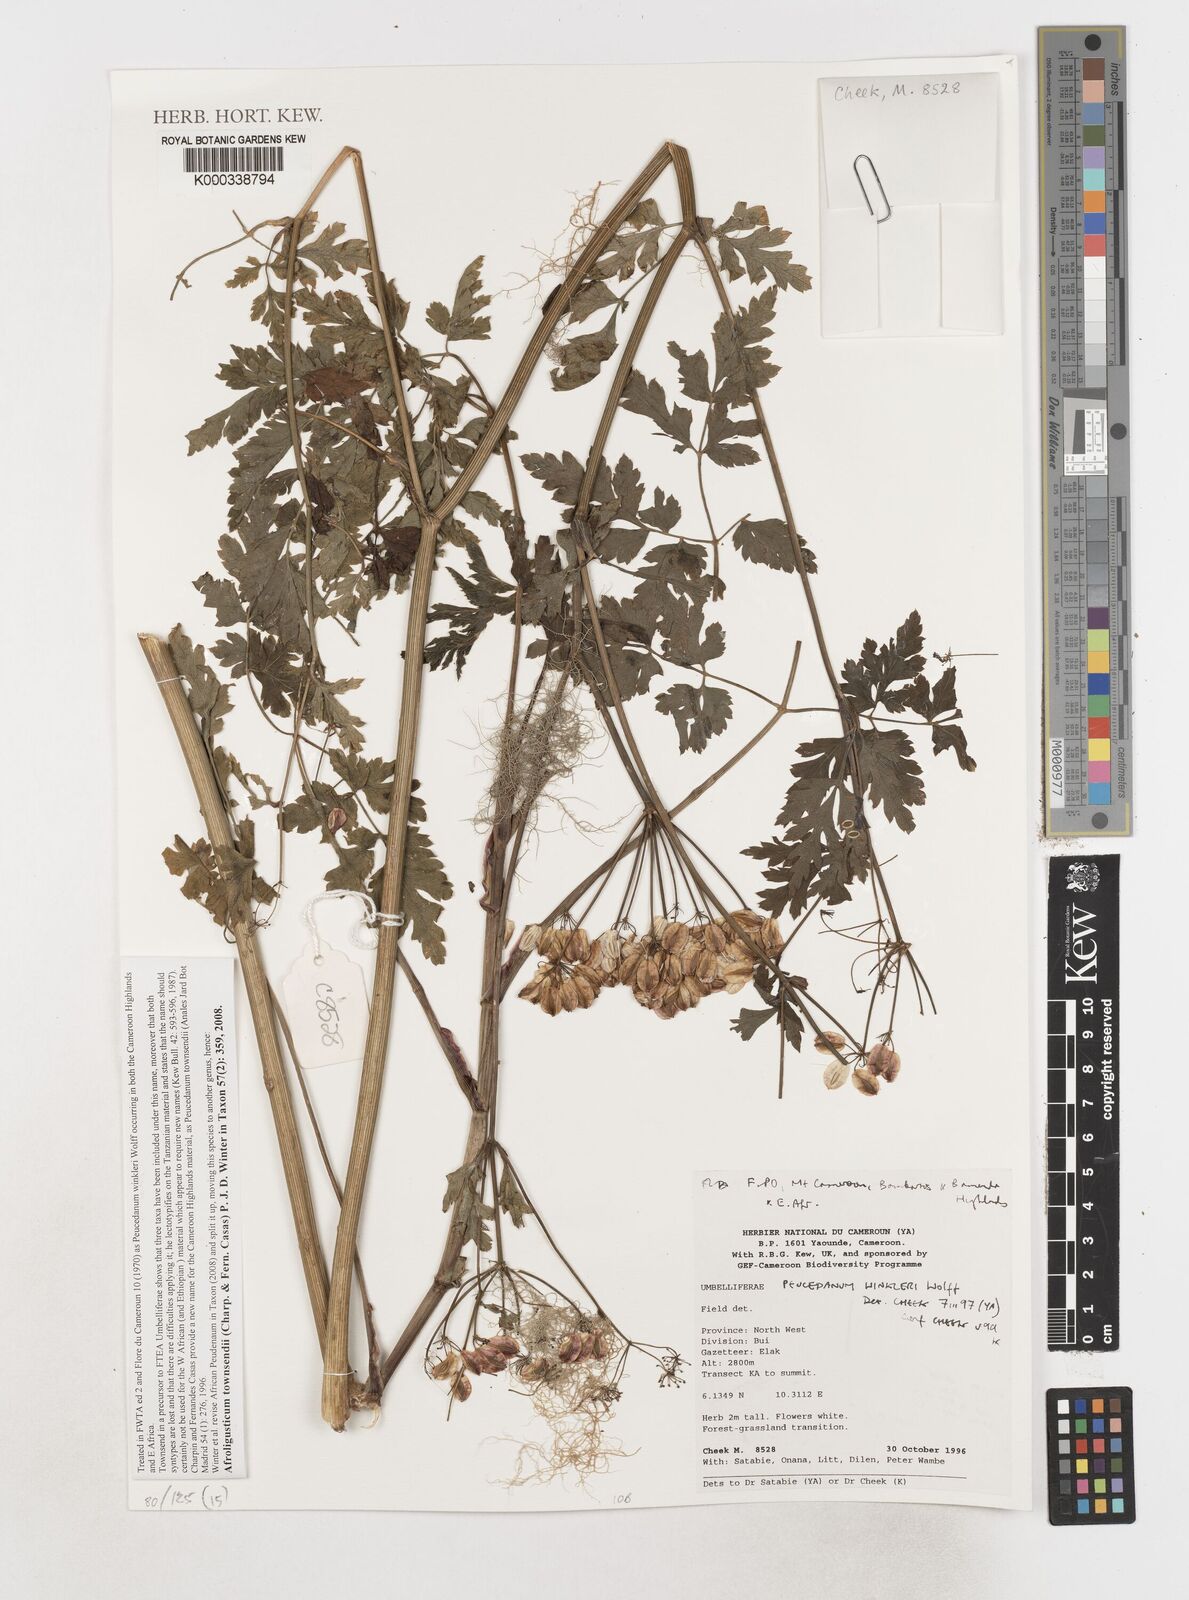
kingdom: Plantae
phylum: Tracheophyta
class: Magnoliopsida
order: Apiales
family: Apiaceae
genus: Afroligusticum
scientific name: Afroligusticum
